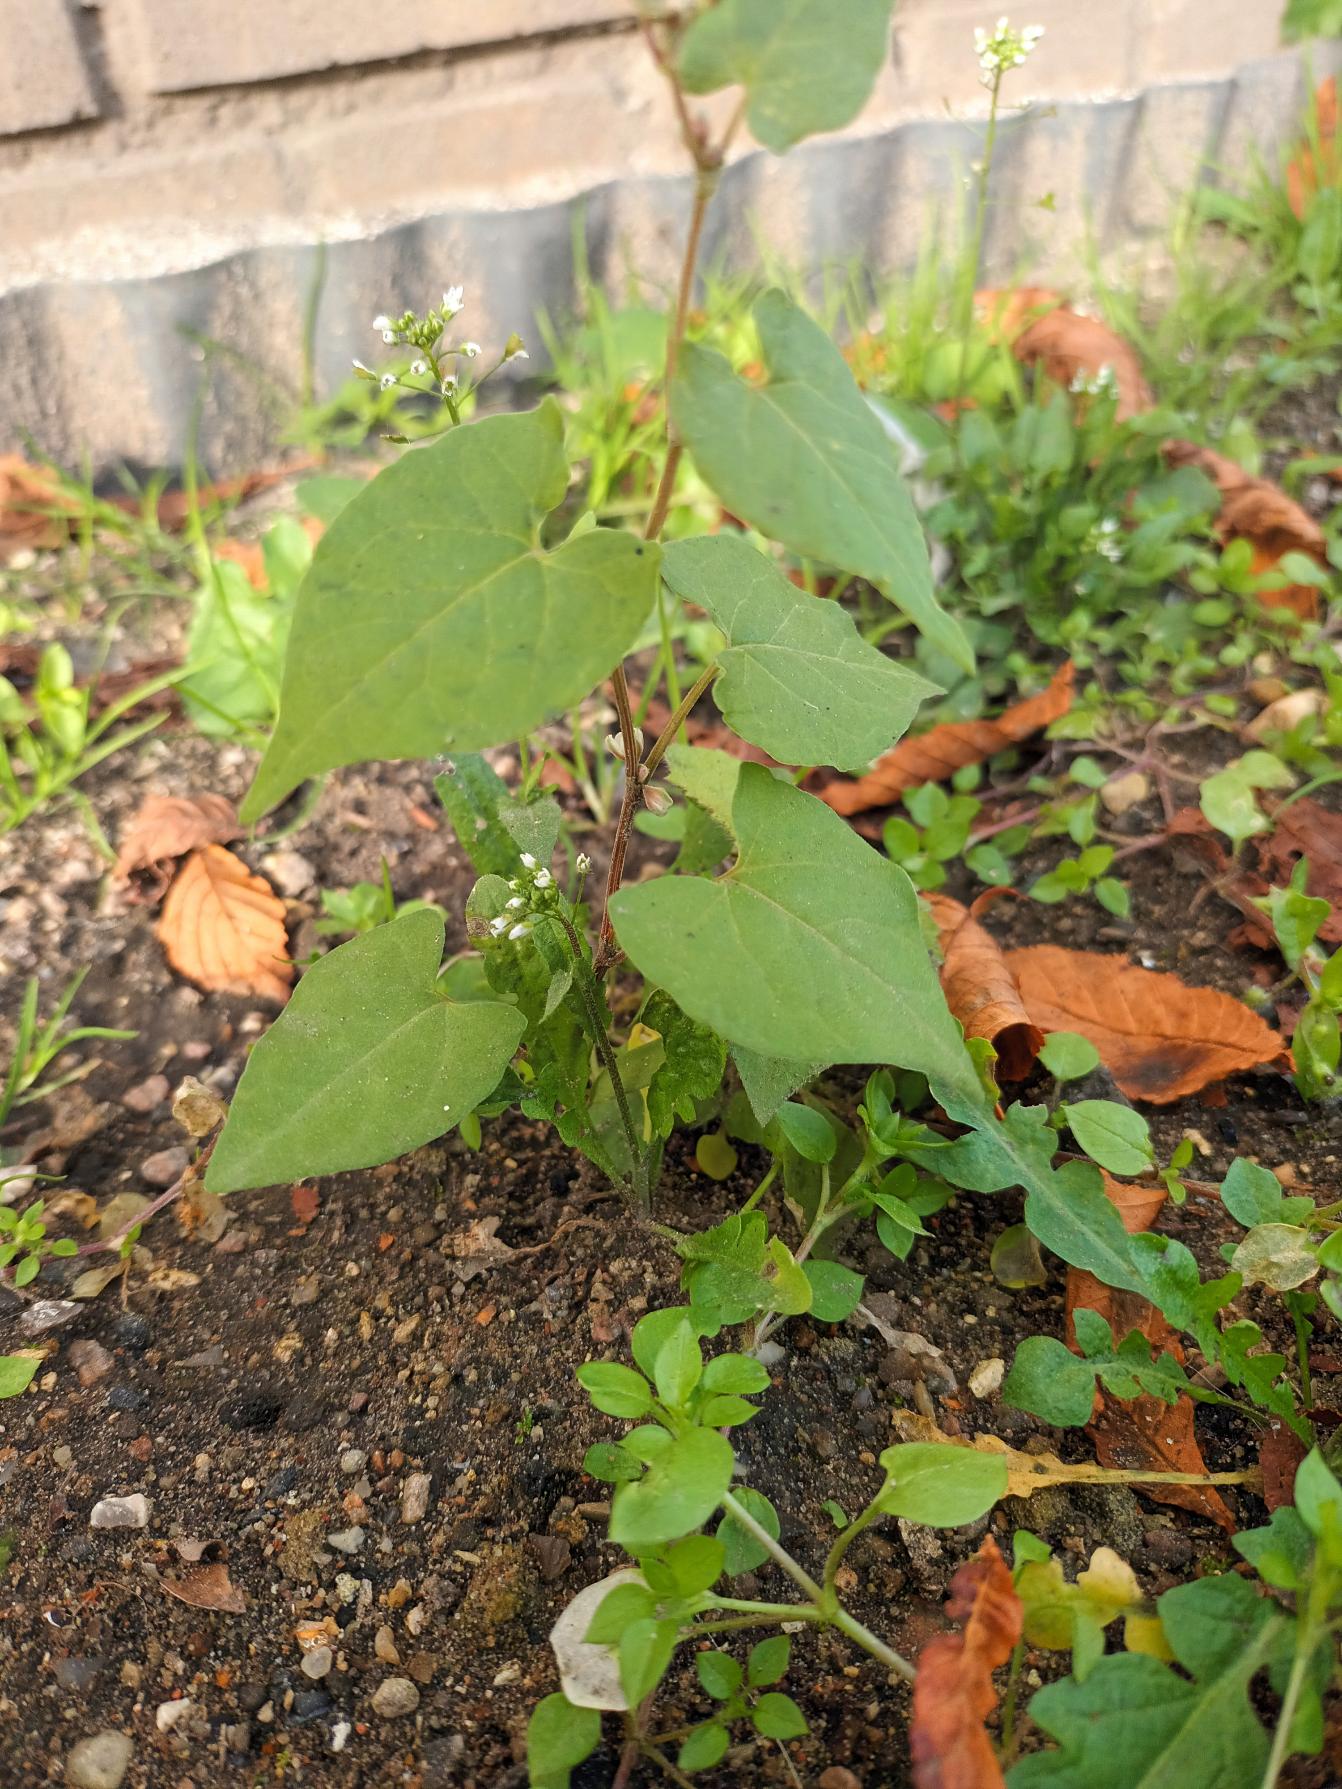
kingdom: Plantae
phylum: Tracheophyta
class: Magnoliopsida
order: Caryophyllales
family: Polygonaceae
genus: Fallopia
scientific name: Fallopia convolvulus
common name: Snerle-pileurt
